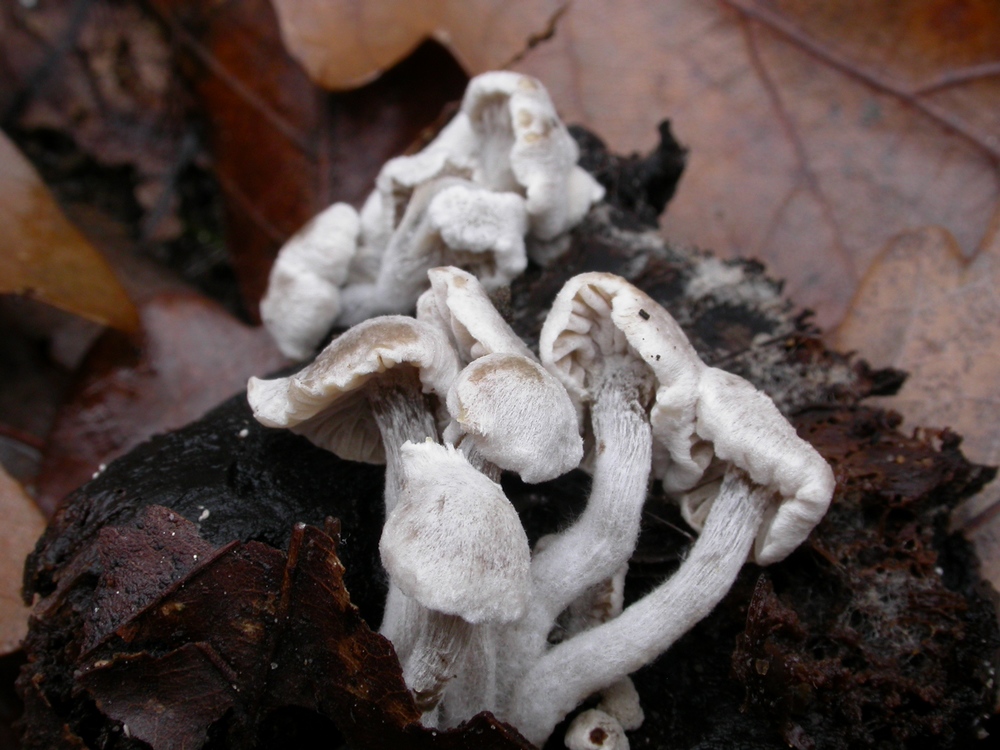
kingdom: Fungi
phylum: Basidiomycota
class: Agaricomycetes
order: Agaricales
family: Lyophyllaceae
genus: Asterophora
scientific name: Asterophora parasitica
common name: grå snyltehat
